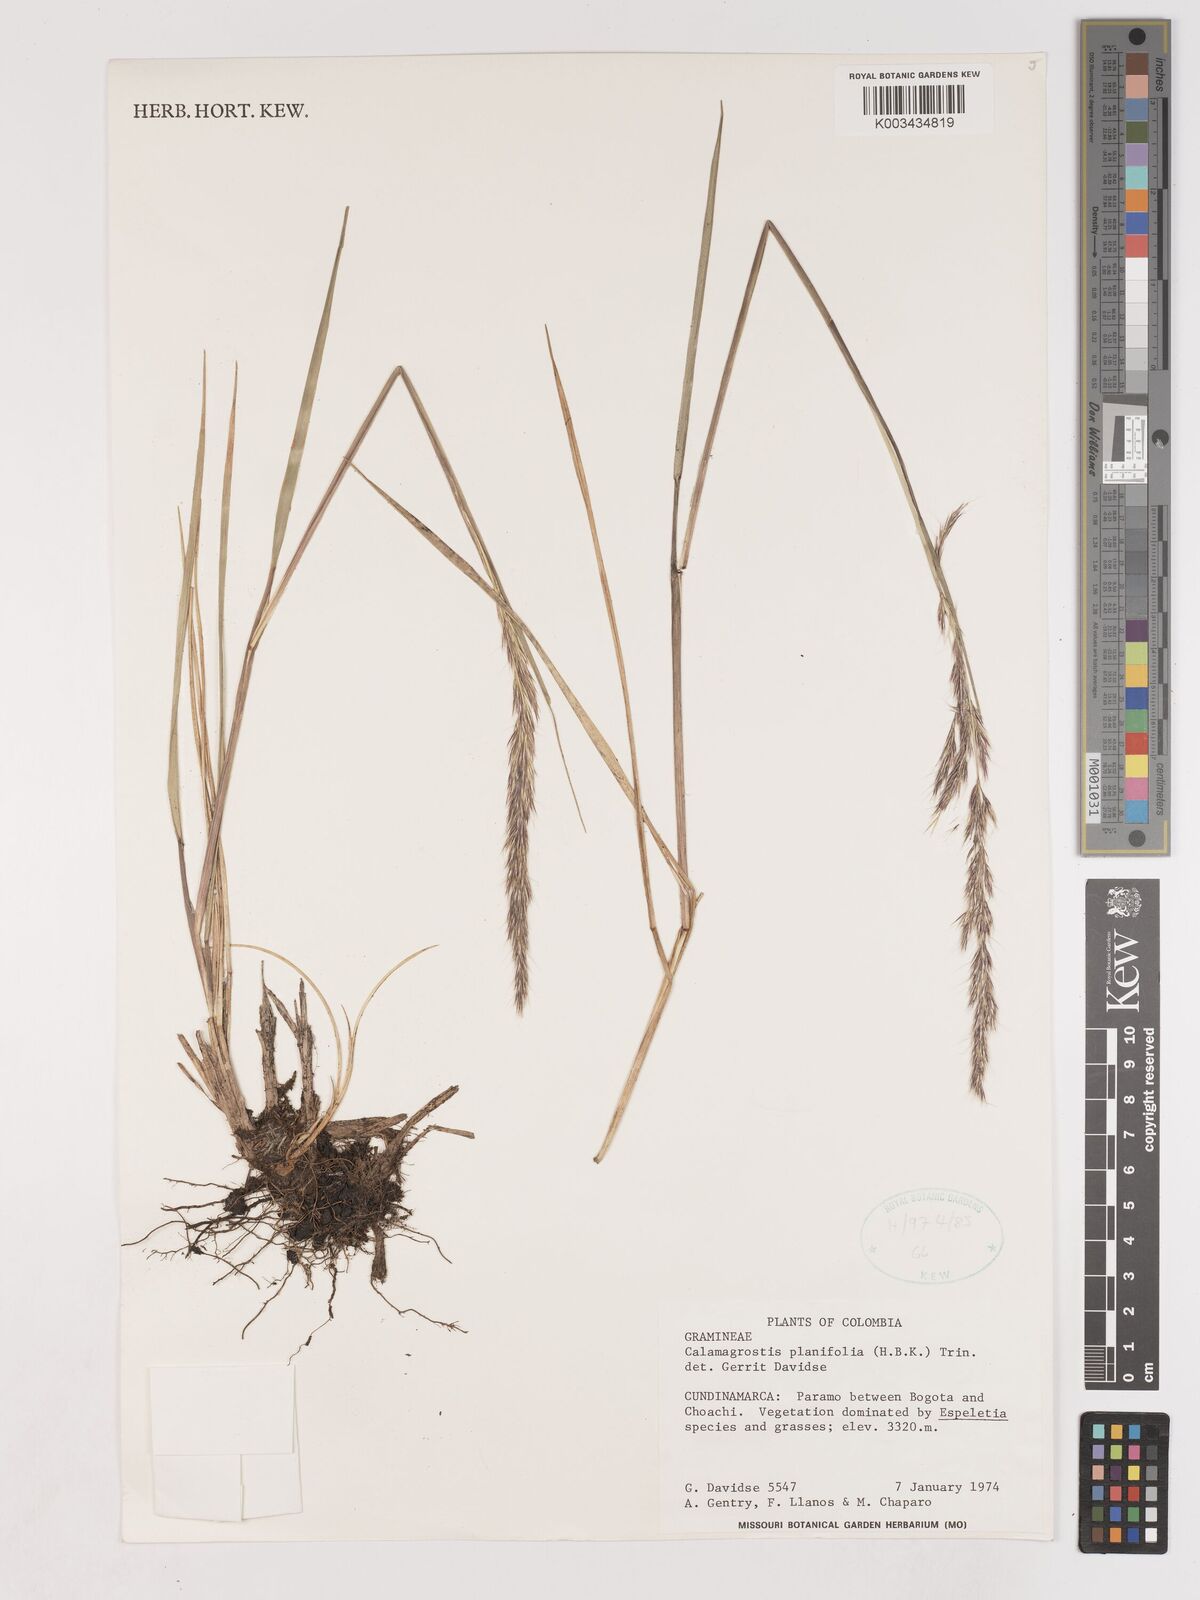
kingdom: Plantae
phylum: Tracheophyta
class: Liliopsida
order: Poales
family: Poaceae
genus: Peyritschia
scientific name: Peyritschia planifolia
